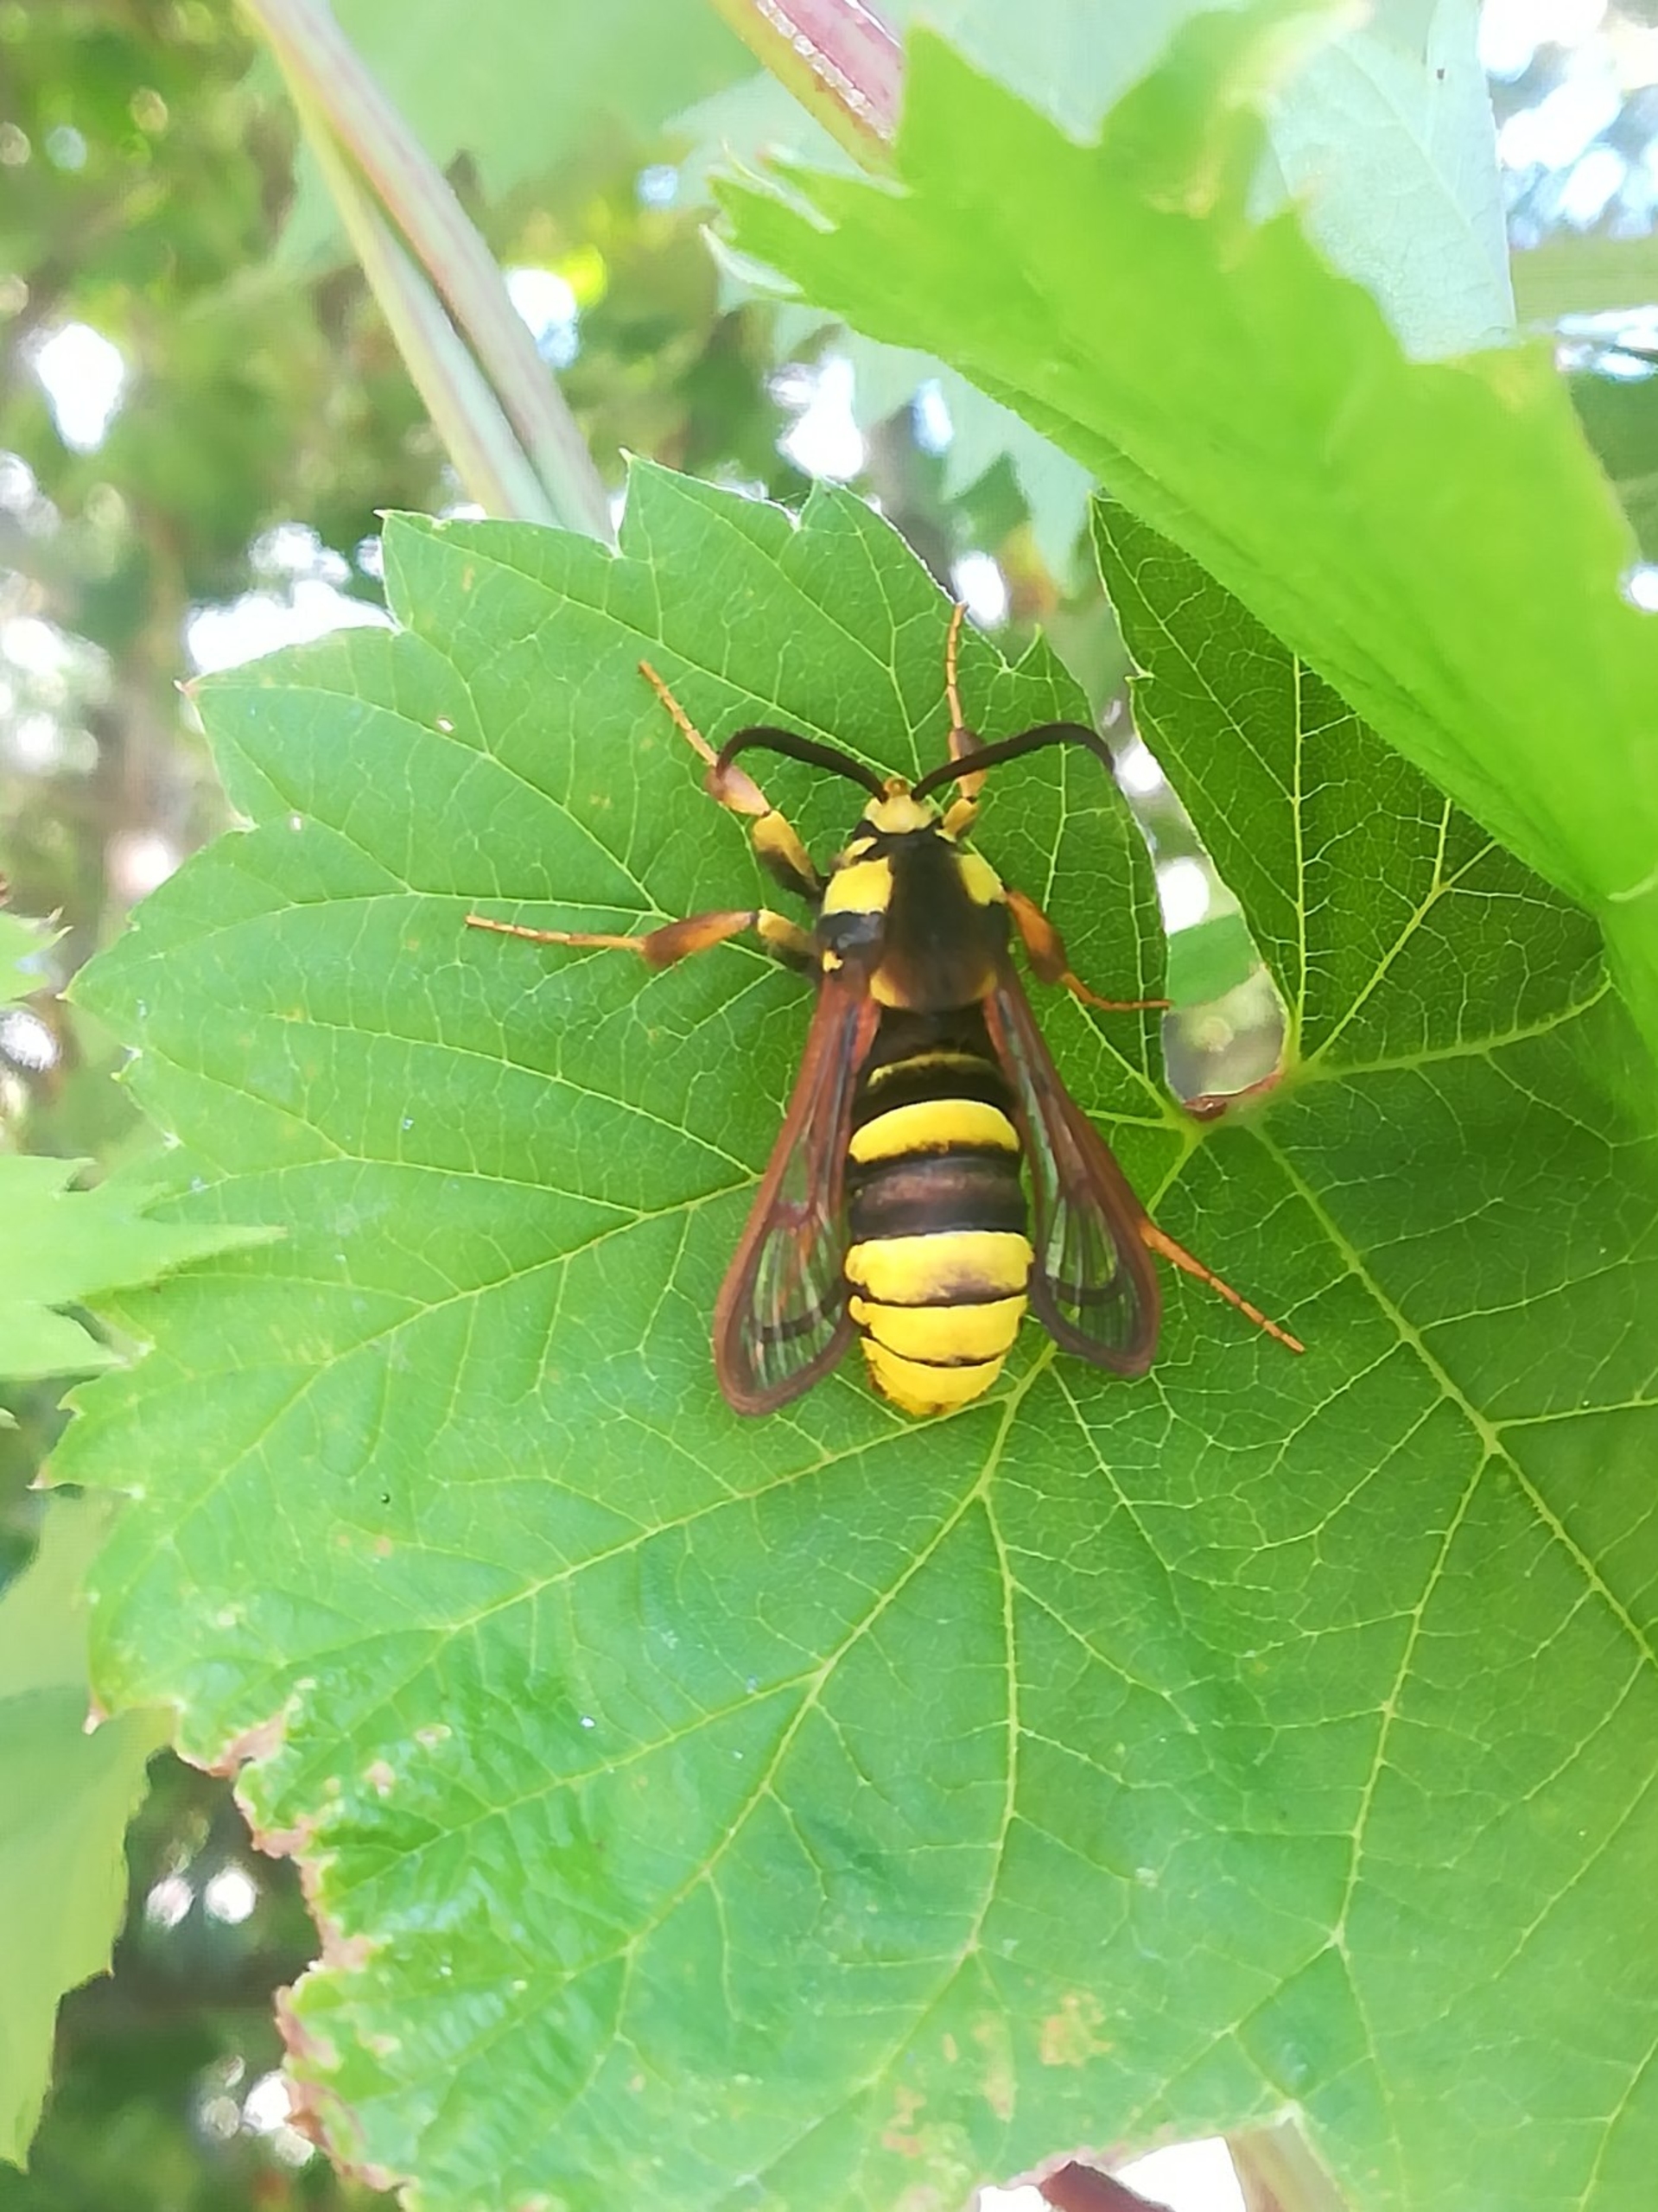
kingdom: Animalia
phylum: Arthropoda
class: Insecta
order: Lepidoptera
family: Sesiidae
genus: Sesia
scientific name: Sesia apiformis
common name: Stor glassværmer
